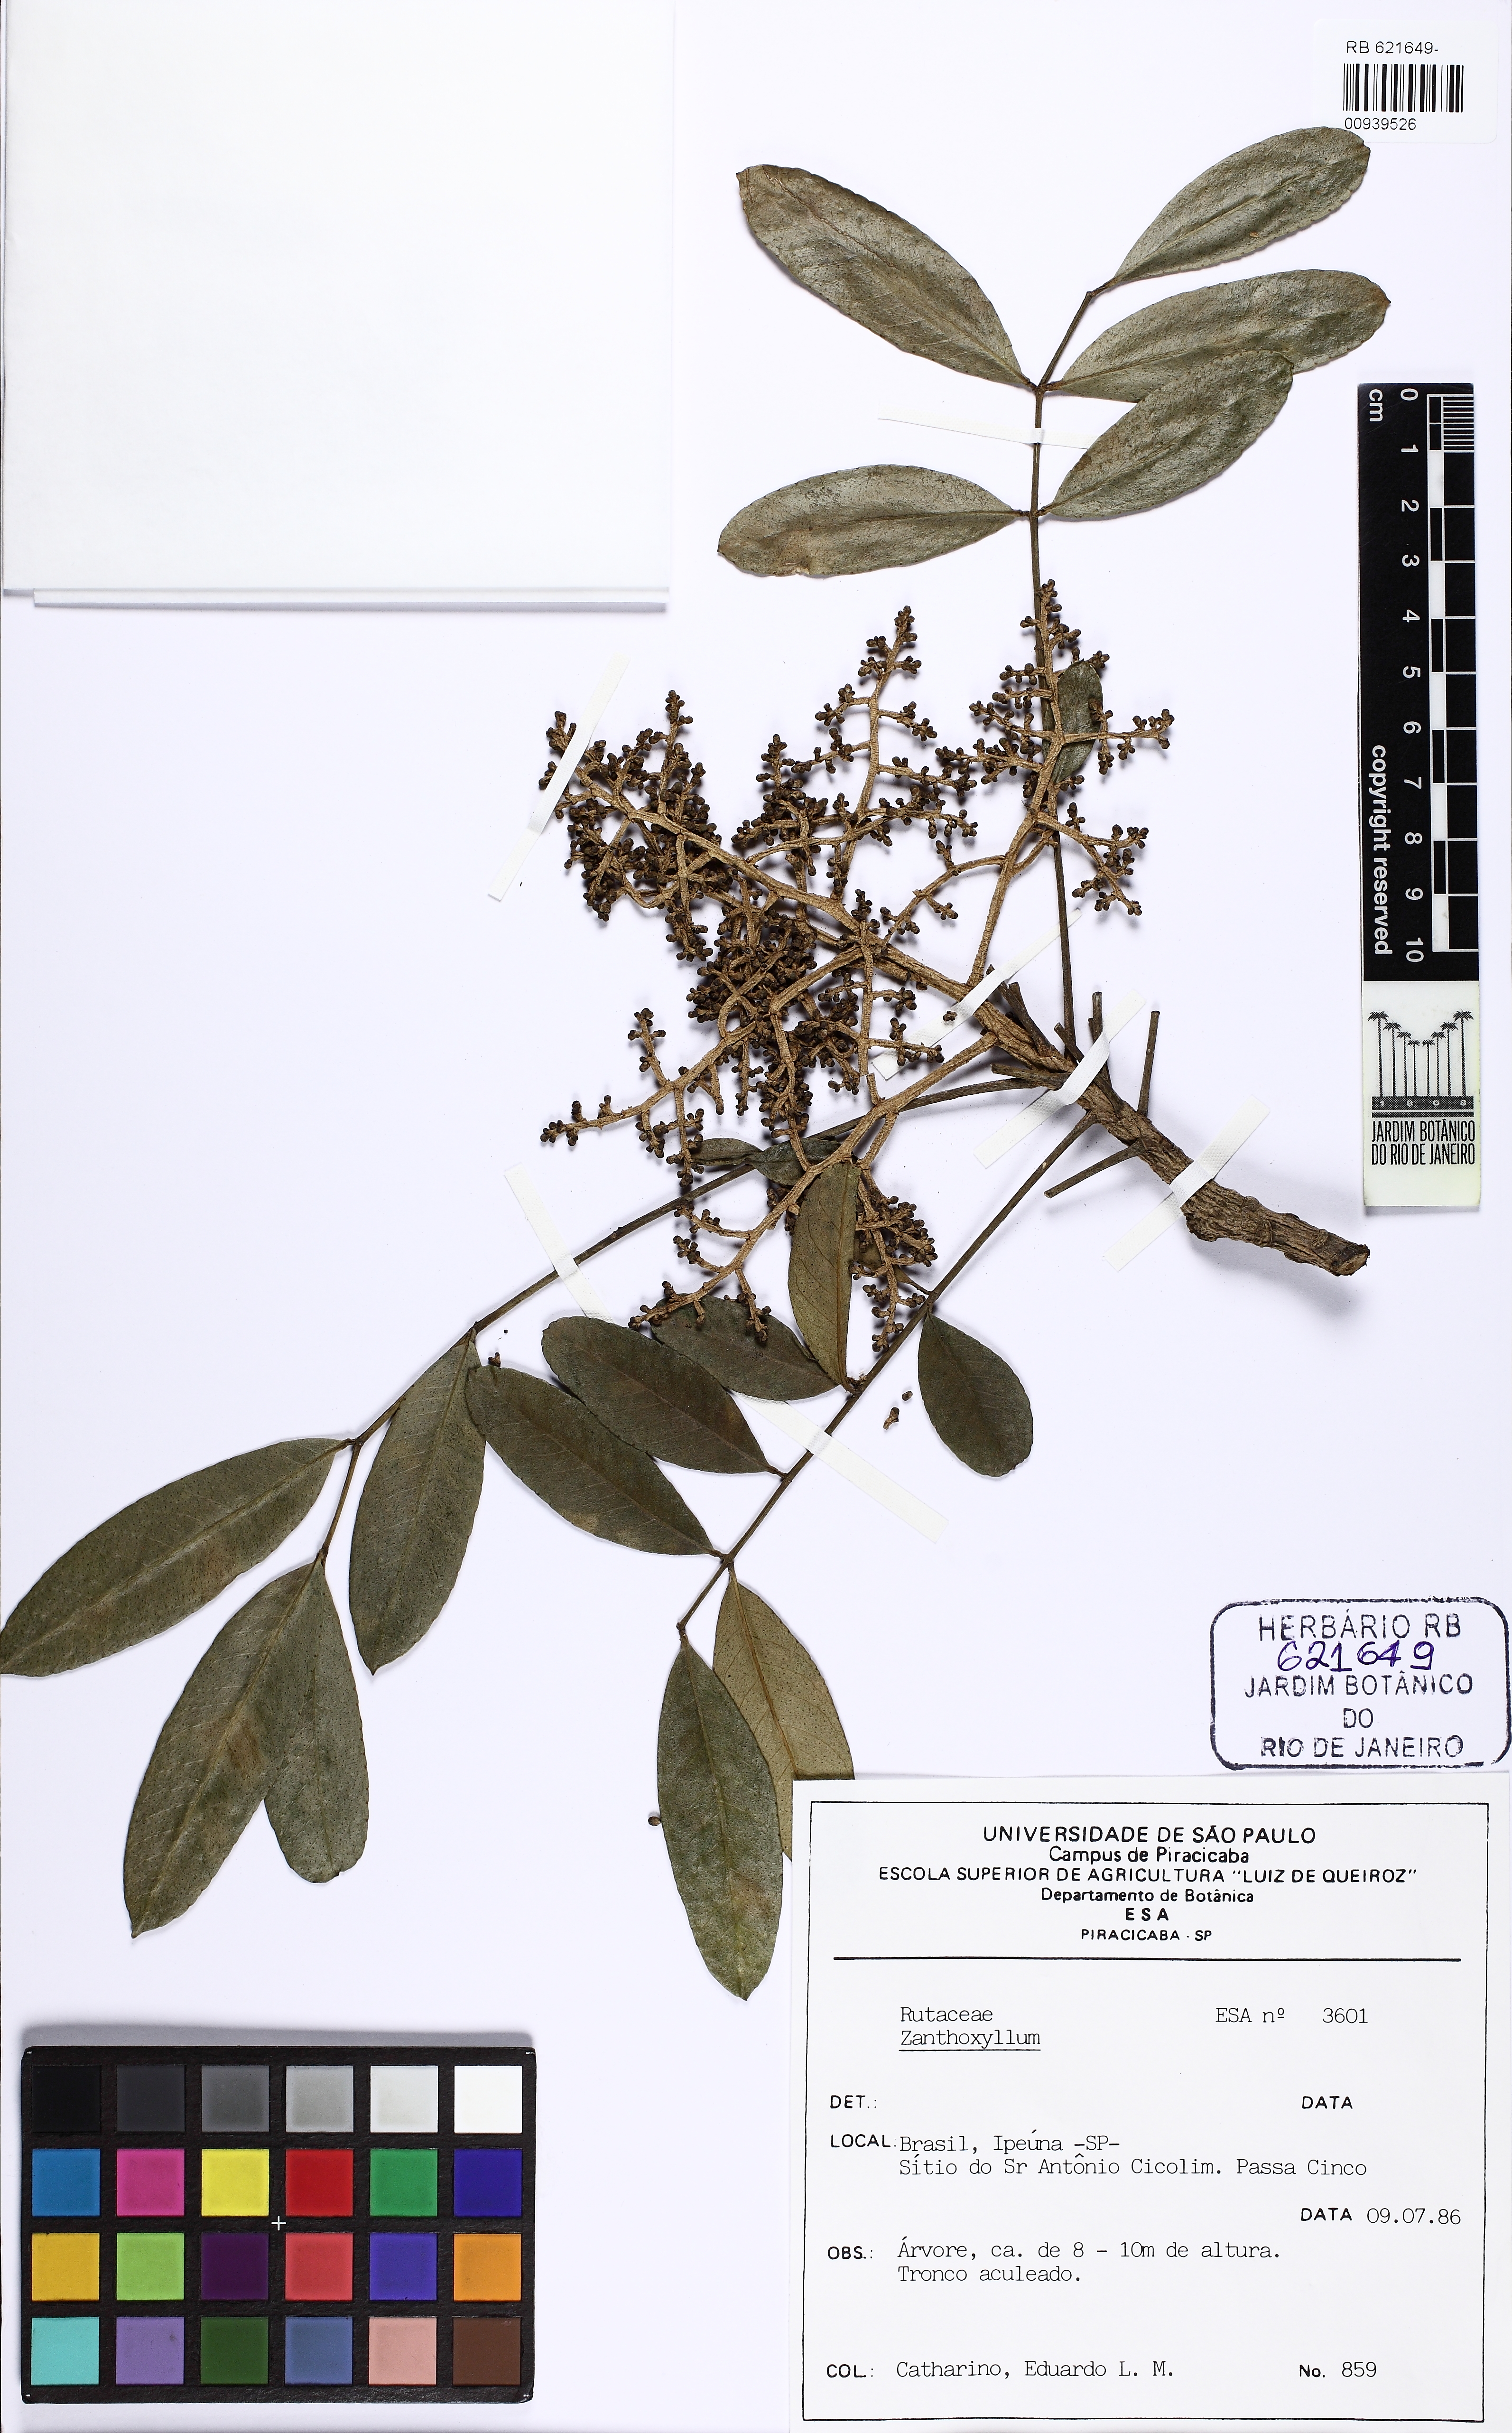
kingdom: Plantae
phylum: Tracheophyta
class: Magnoliopsida
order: Sapindales
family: Rutaceae
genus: Zanthoxylum
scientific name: Zanthoxylum caribaeum
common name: Prickly yellow
